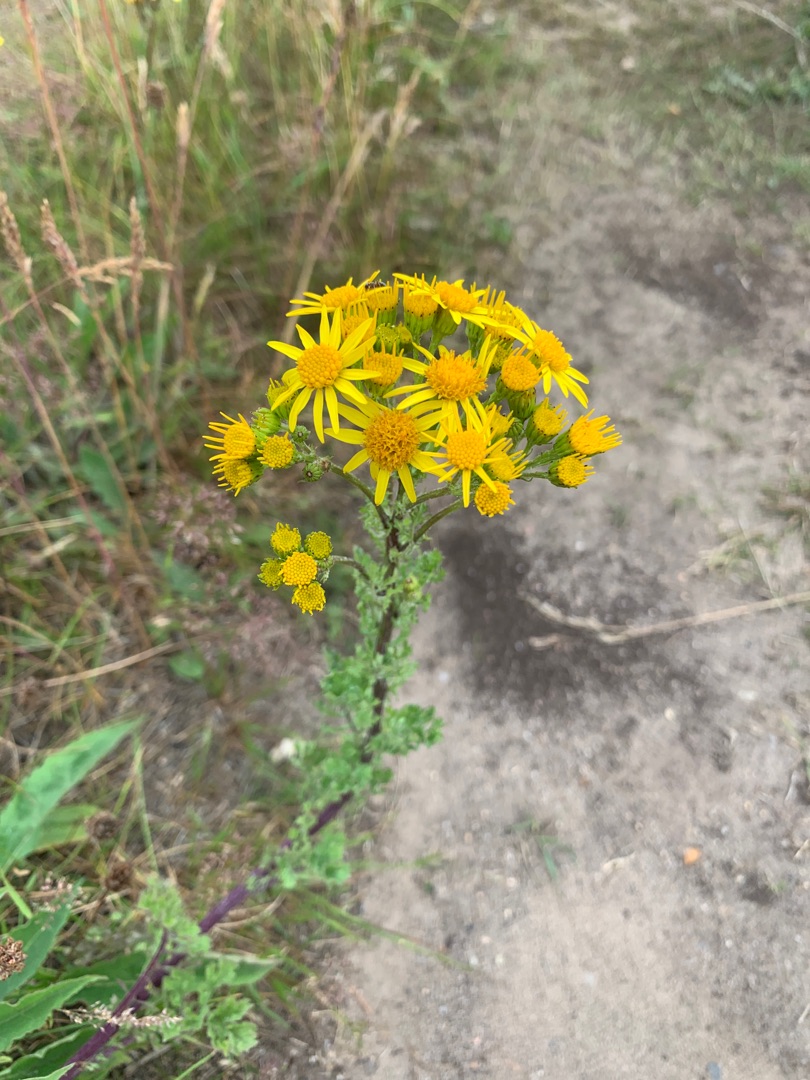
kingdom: Plantae
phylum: Tracheophyta
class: Magnoliopsida
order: Asterales
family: Asteraceae
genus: Jacobaea
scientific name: Jacobaea vulgaris
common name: Eng-brandbæger
